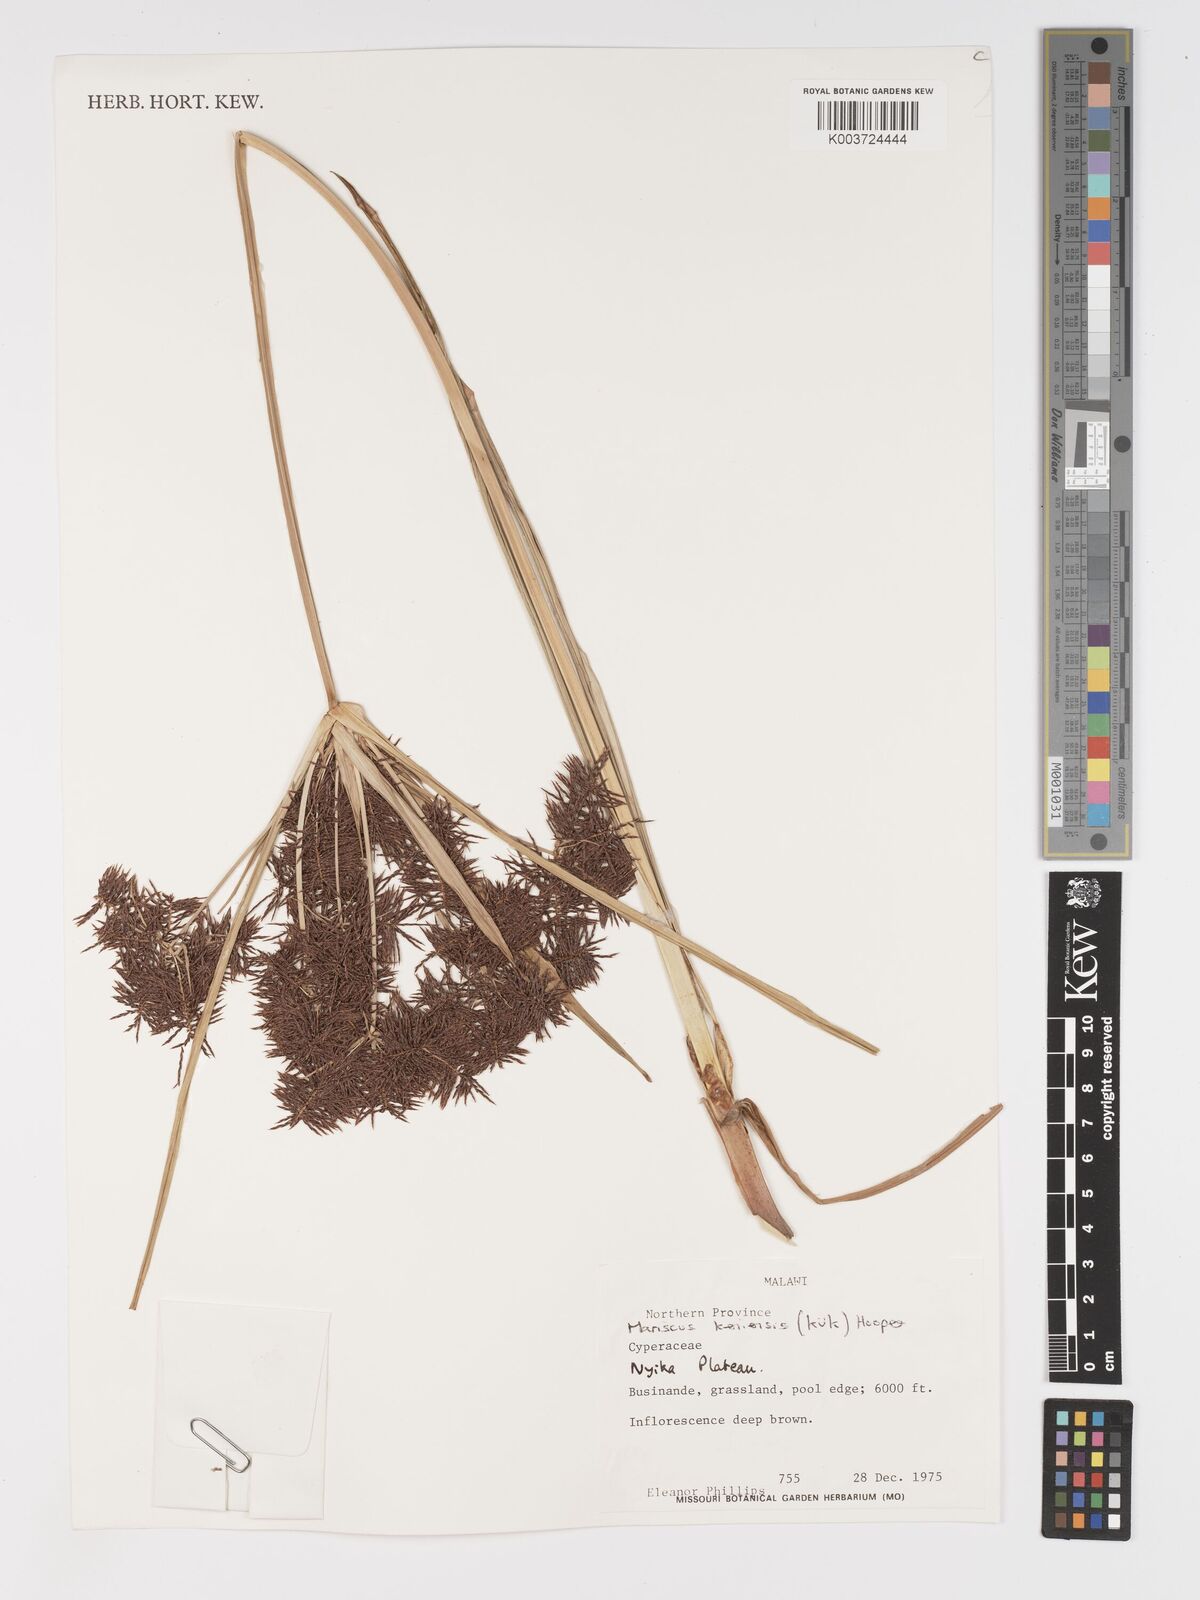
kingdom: Plantae
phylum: Tracheophyta
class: Liliopsida
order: Poales
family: Cyperaceae
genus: Cyperus
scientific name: Cyperus
